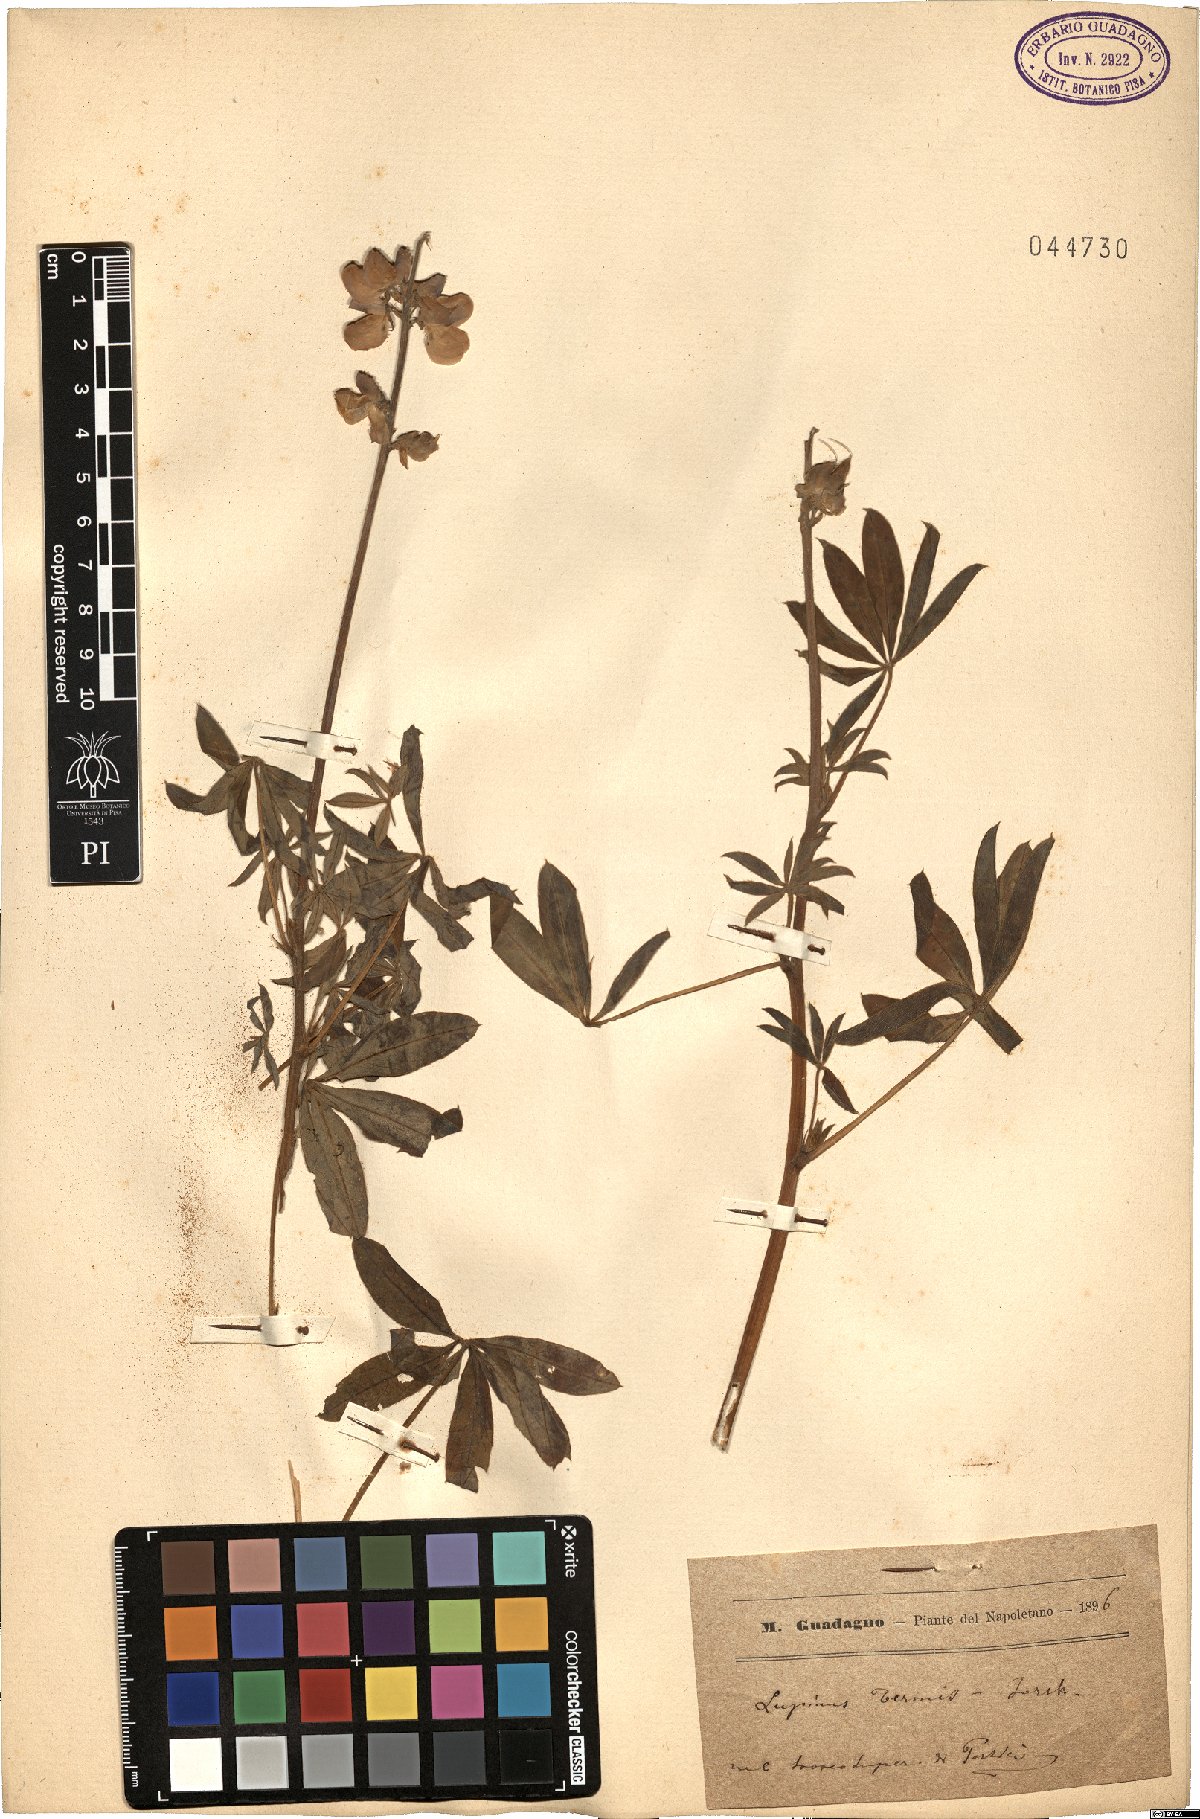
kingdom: Plantae
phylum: Tracheophyta
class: Magnoliopsida
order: Fabales
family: Fabaceae
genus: Lupinus
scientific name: Lupinus albus
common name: White lupin
